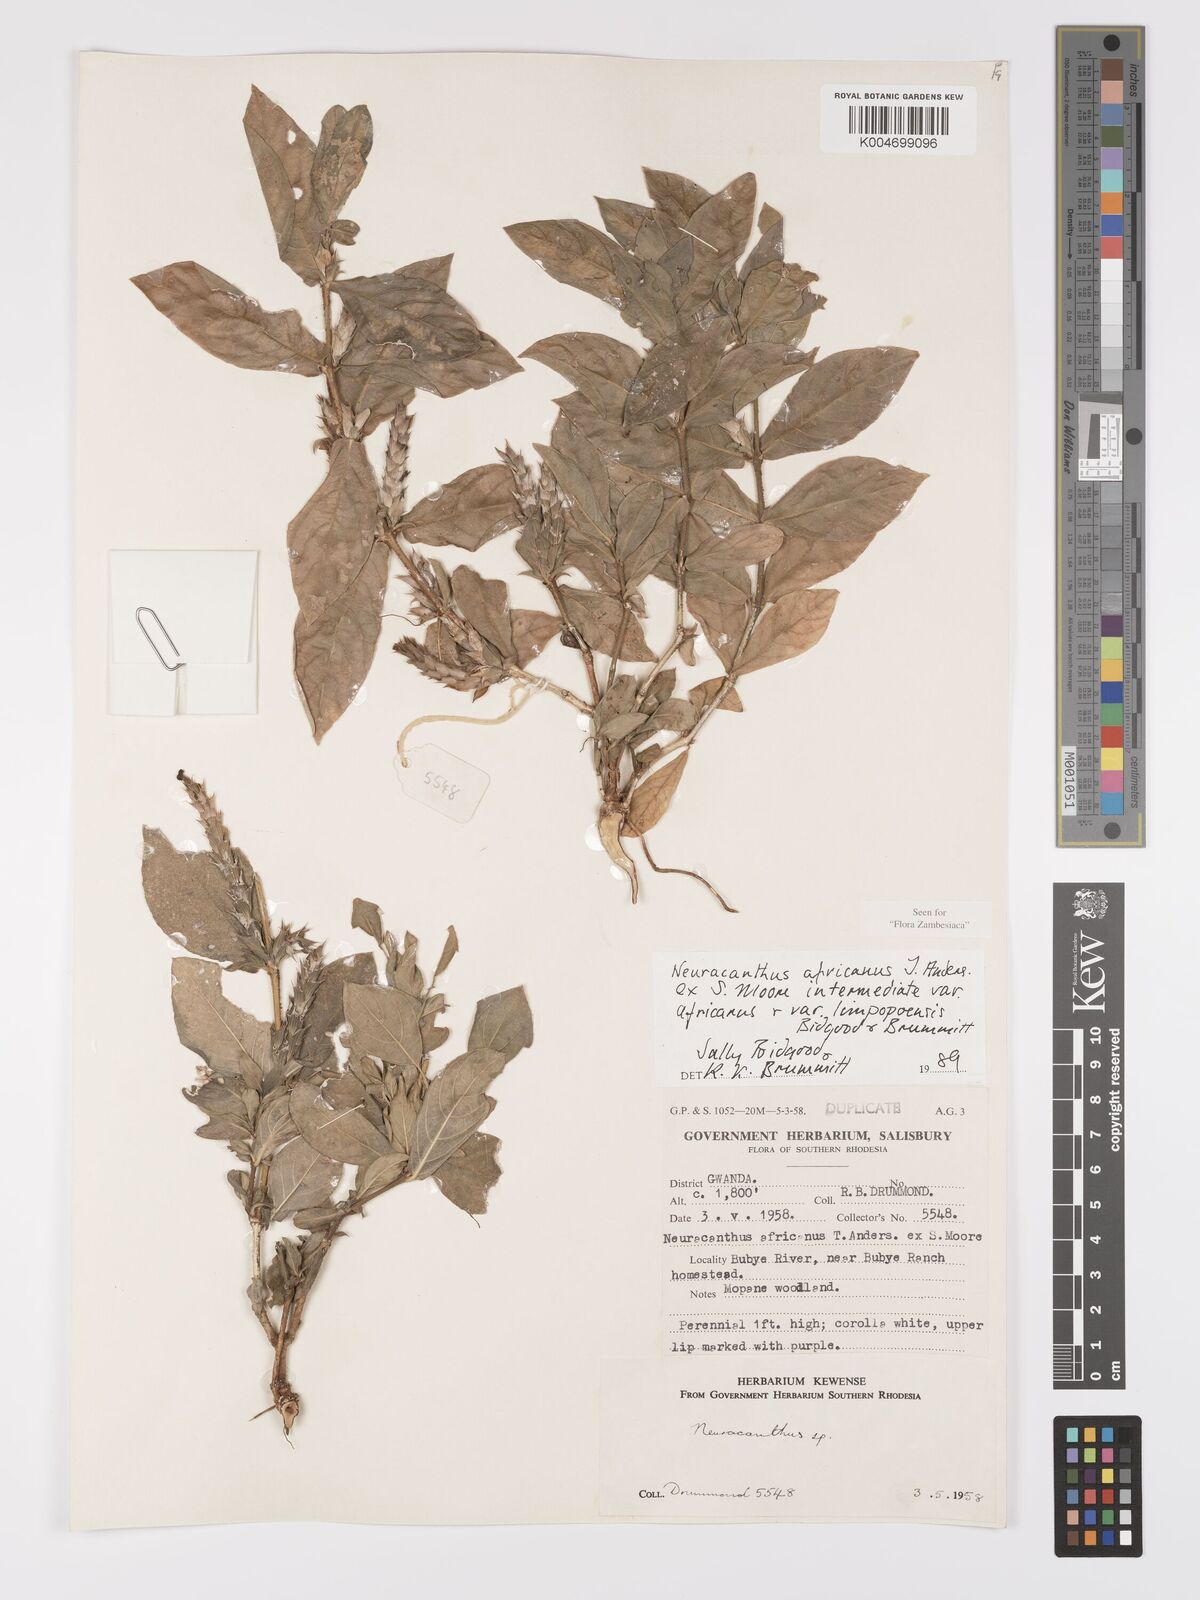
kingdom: Plantae
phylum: Tracheophyta
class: Magnoliopsida
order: Lamiales
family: Acanthaceae
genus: Neuracanthus
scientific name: Neuracanthus africanus
